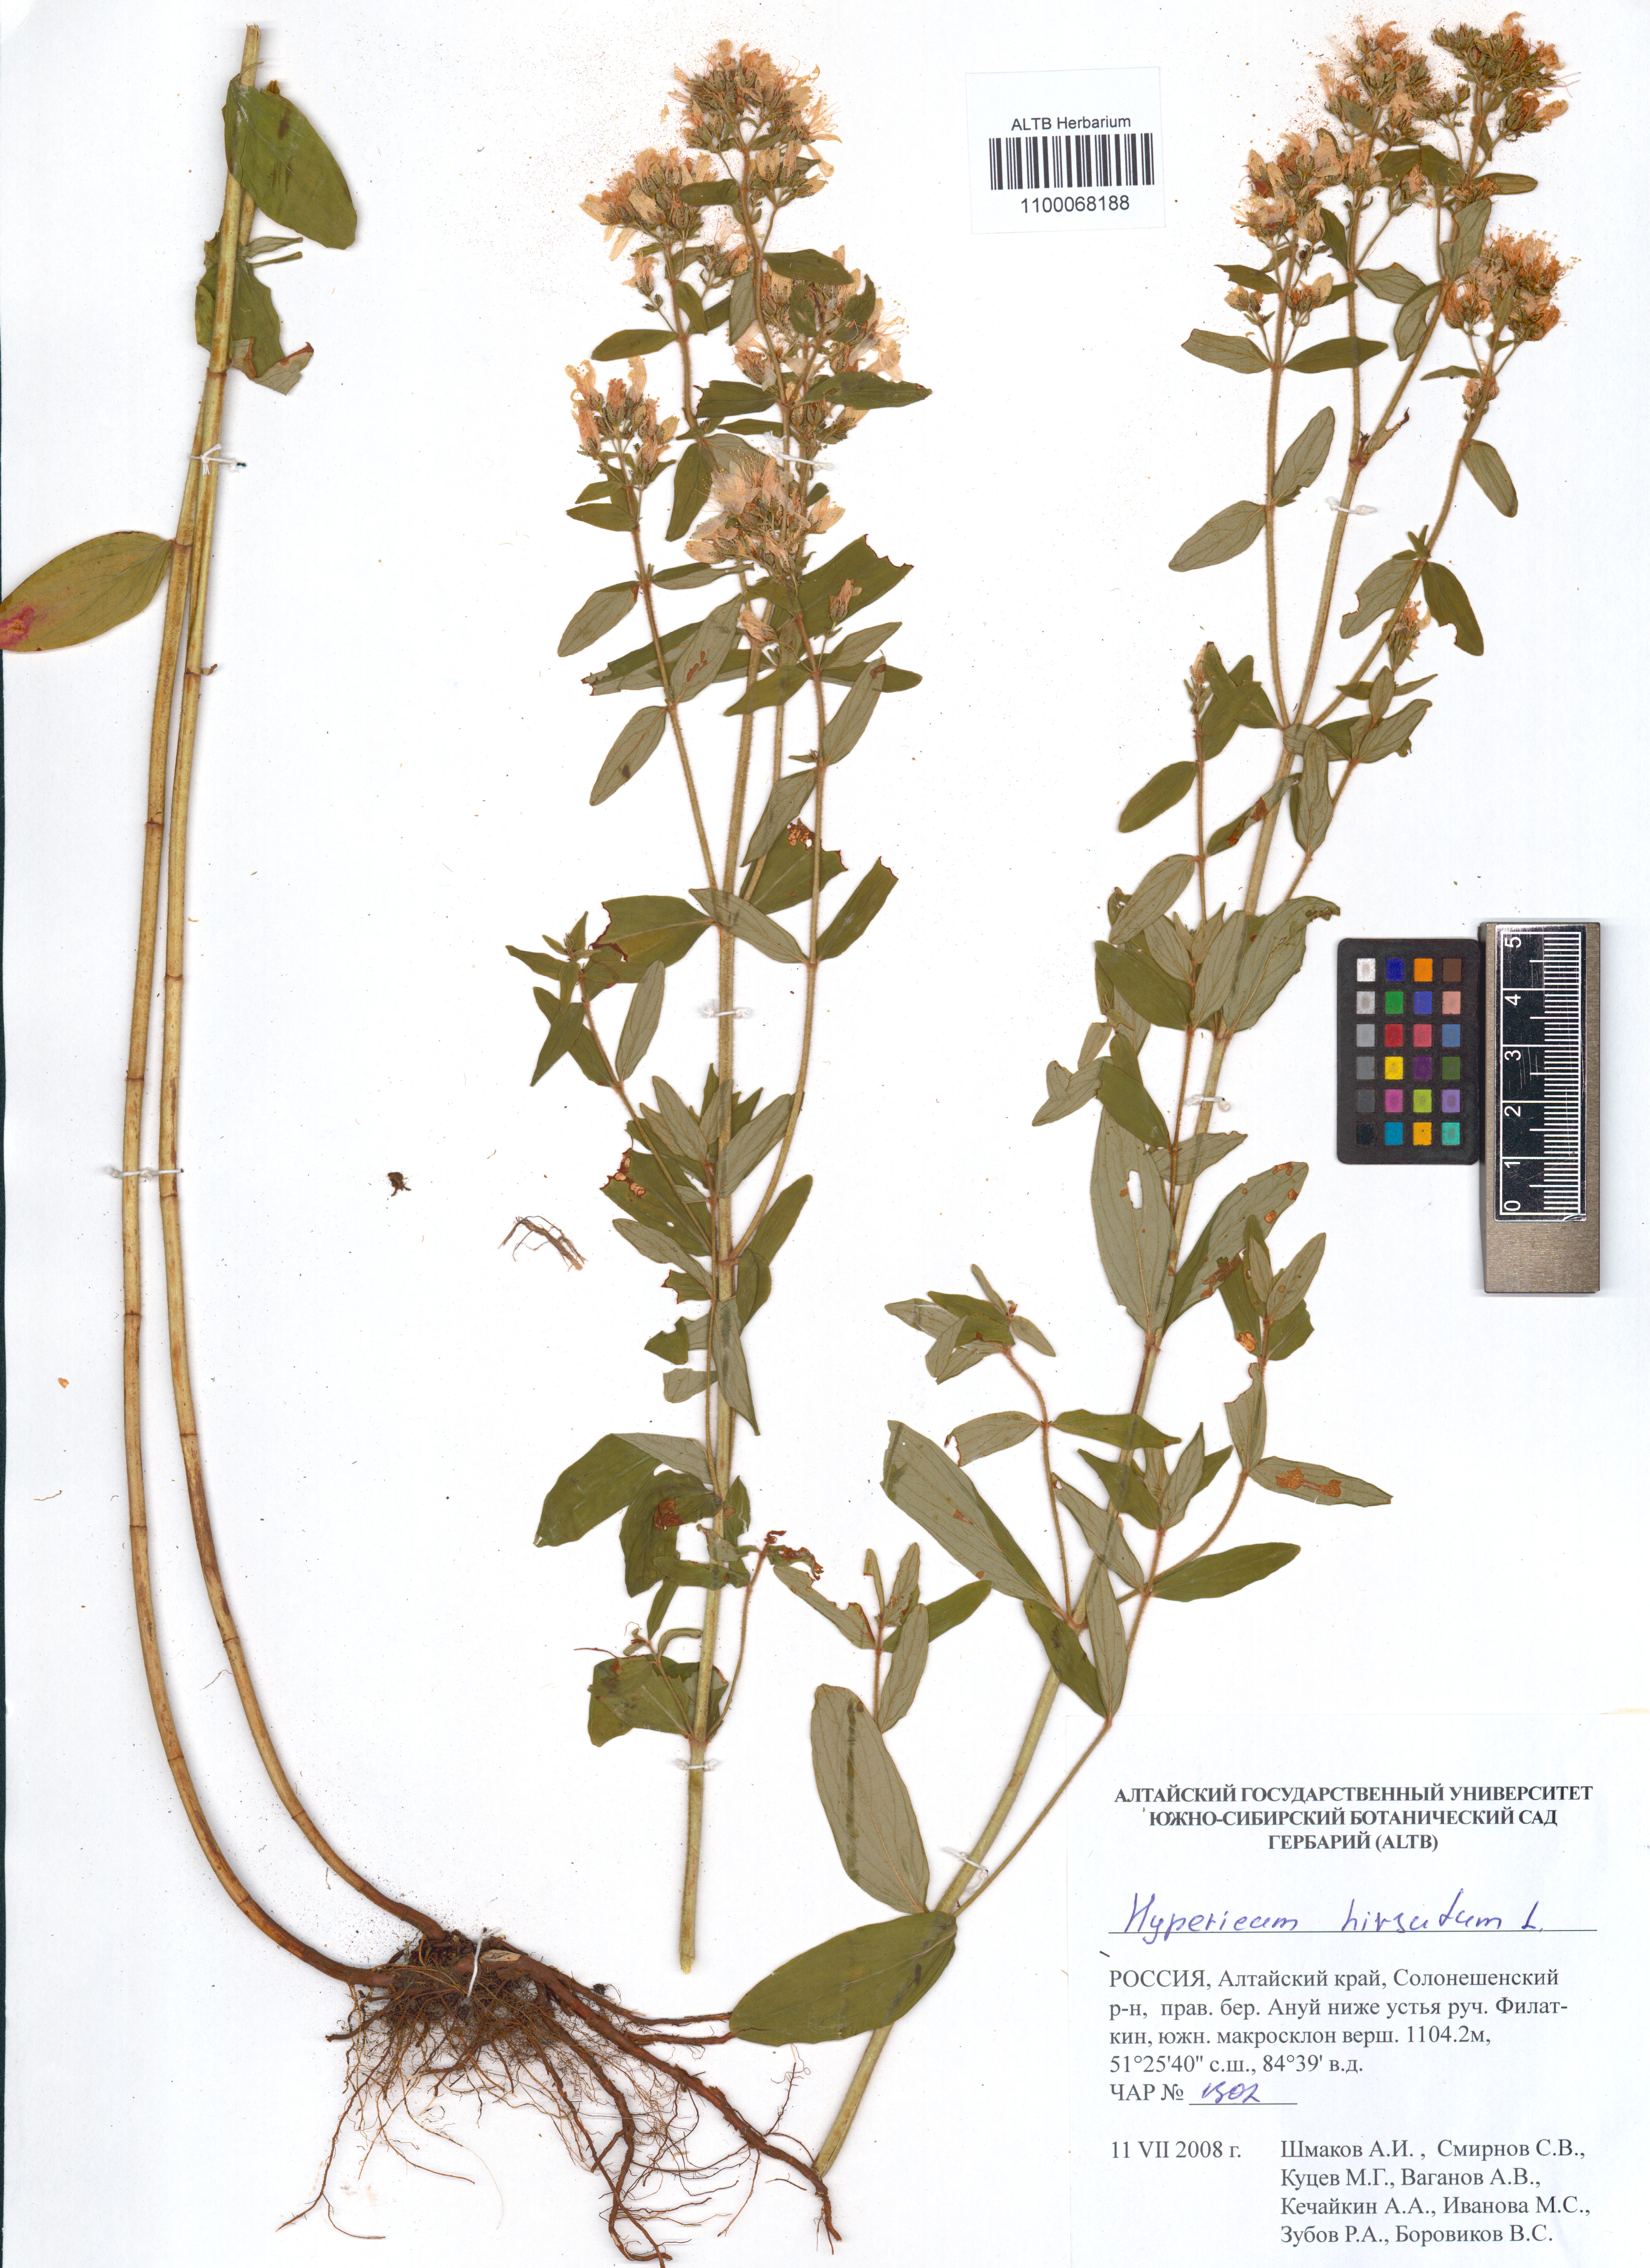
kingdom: Plantae
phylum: Tracheophyta
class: Magnoliopsida
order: Malpighiales
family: Hypericaceae
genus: Hypericum
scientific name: Hypericum hirsutum
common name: Hairy st. john's-wort
